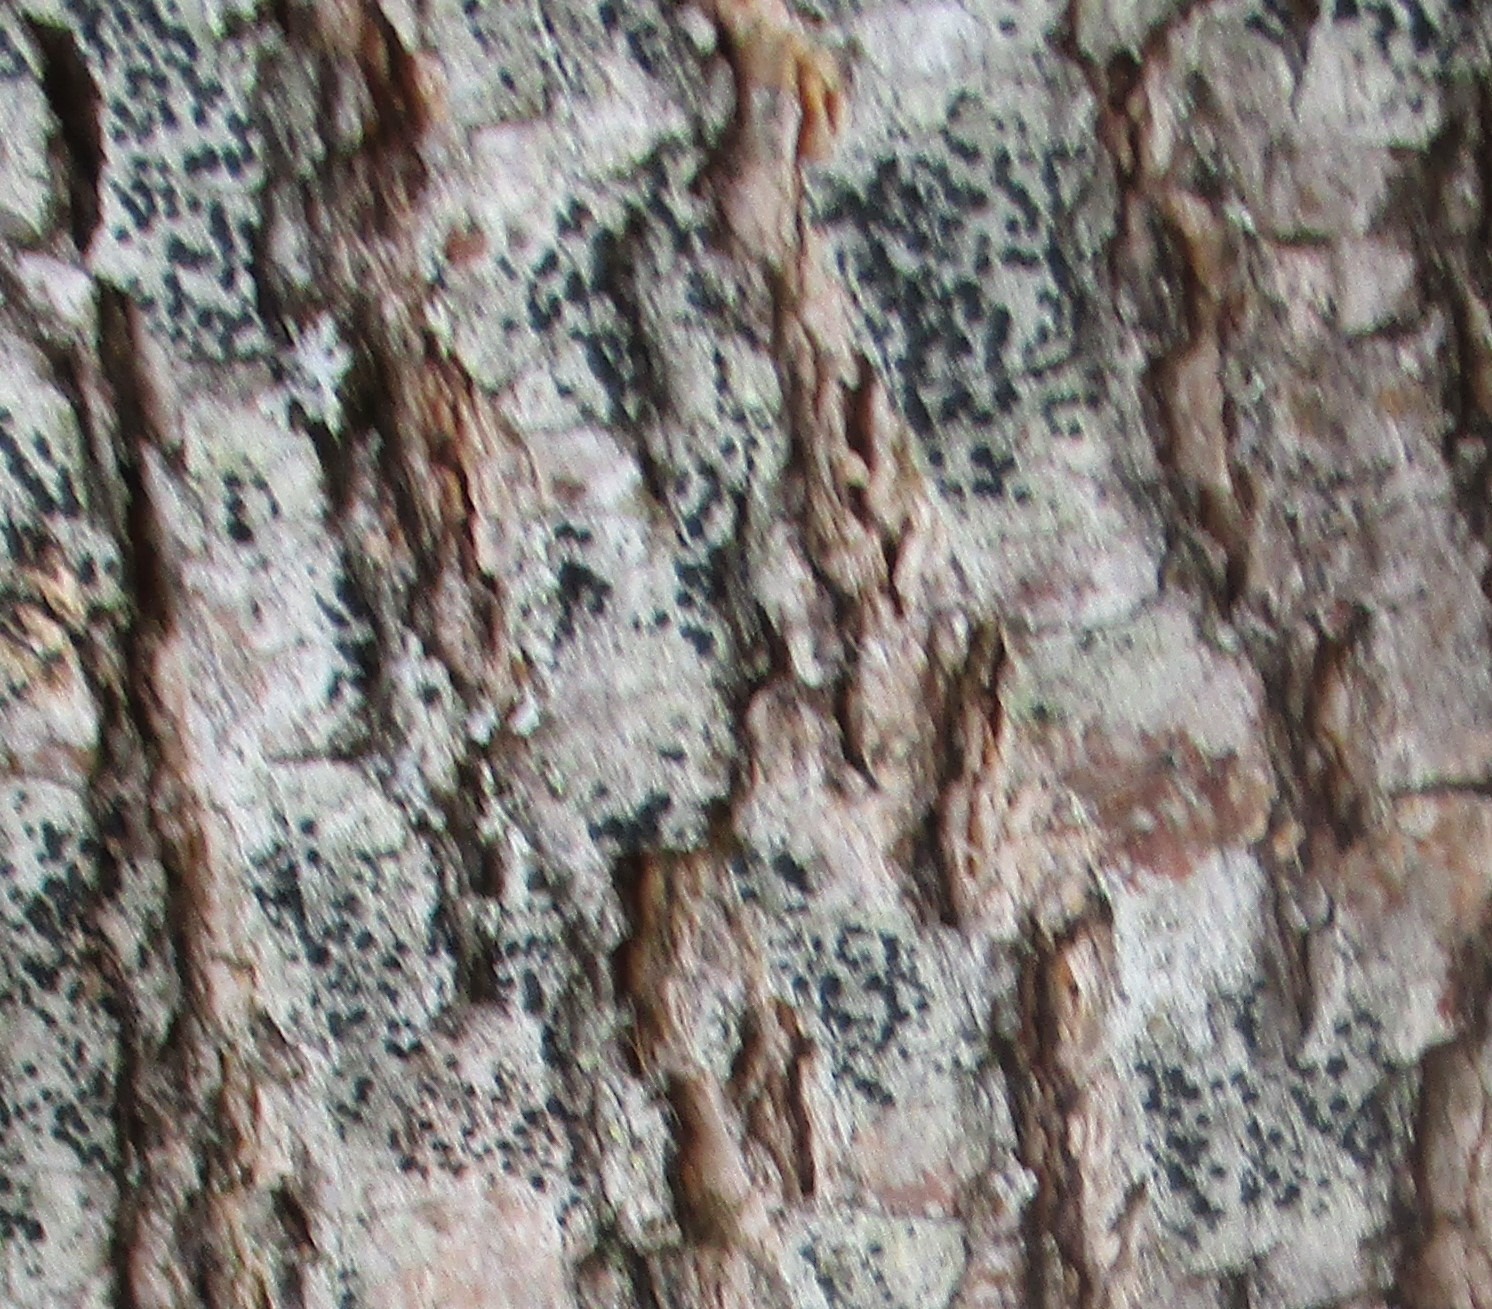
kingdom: Fungi
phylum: Ascomycota
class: Lecanoromycetes
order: Lecanorales
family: Lecanoraceae
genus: Lecidella
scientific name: Lecidella elaeochroma
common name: Grågrøn skivelav
